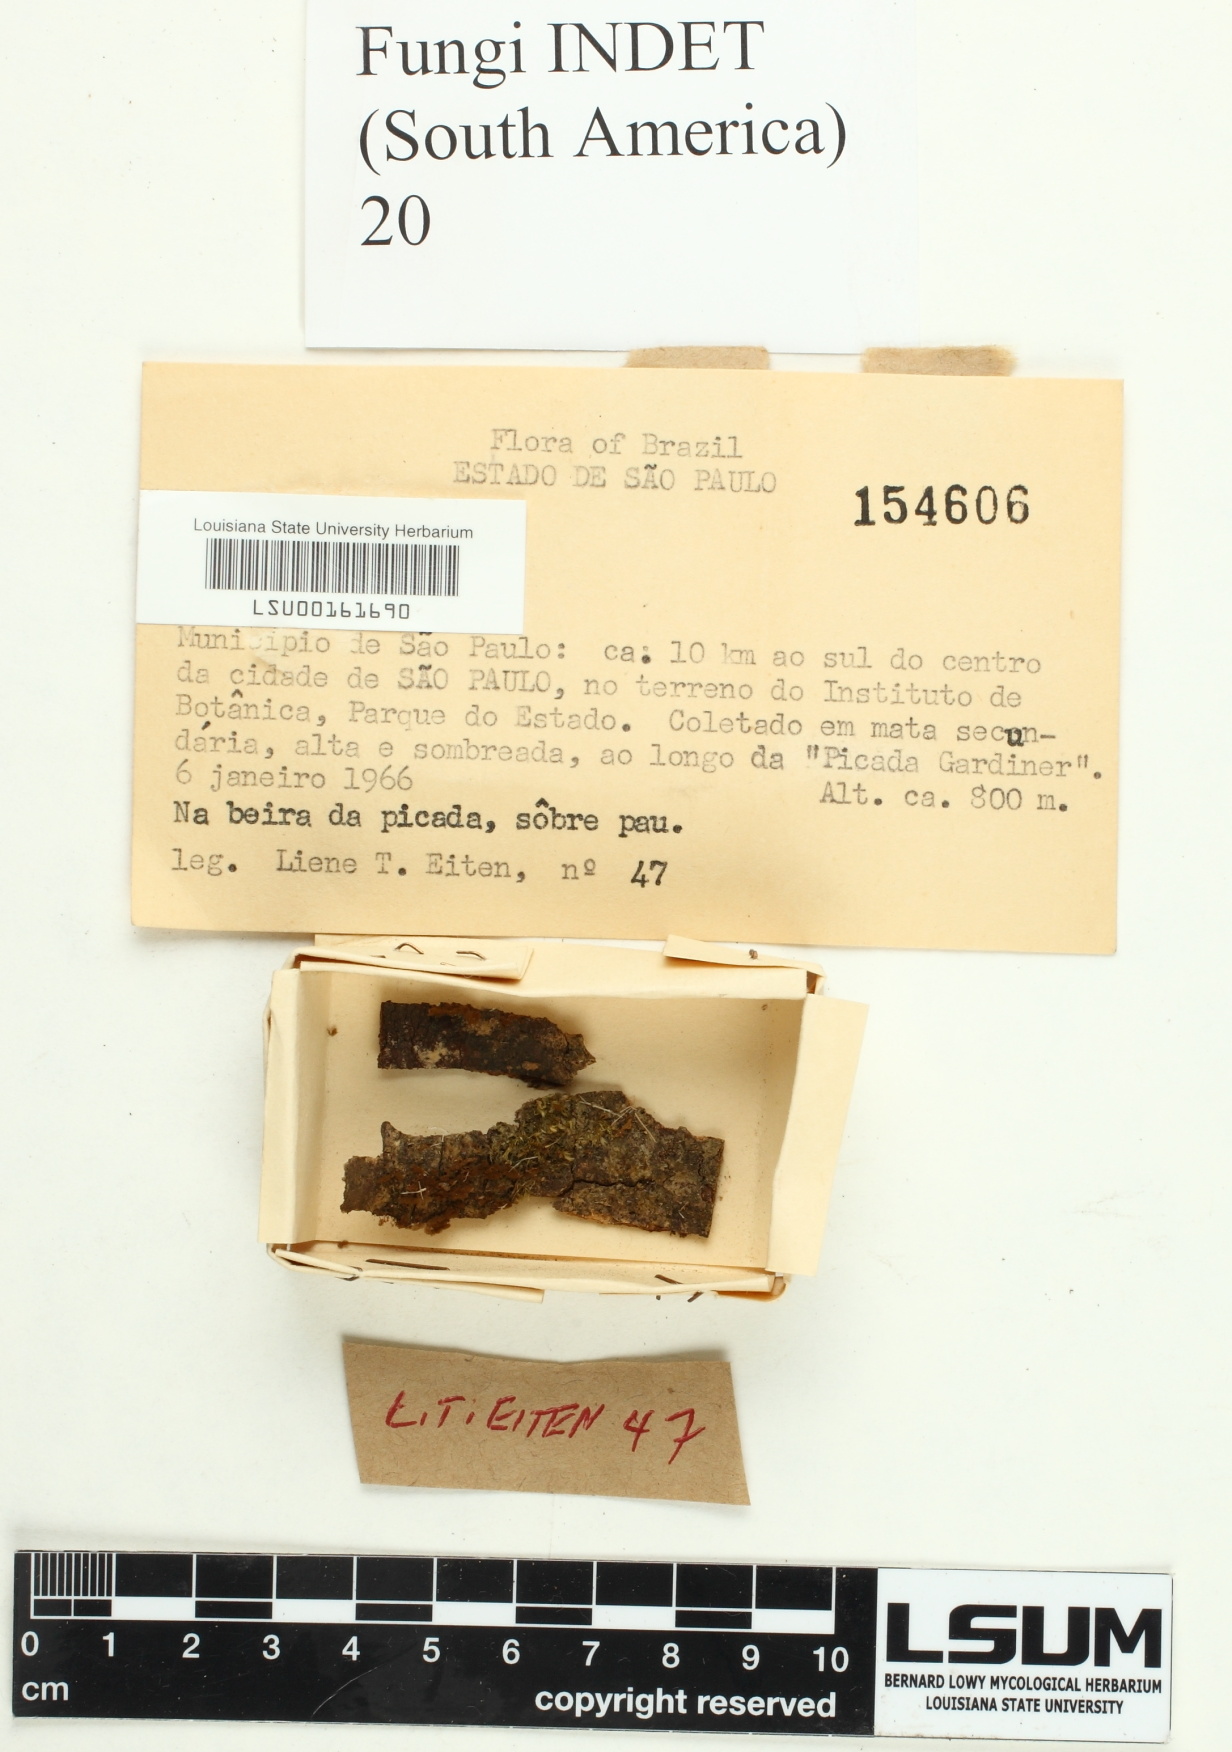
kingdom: Fungi
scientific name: Fungi
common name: Fungi
